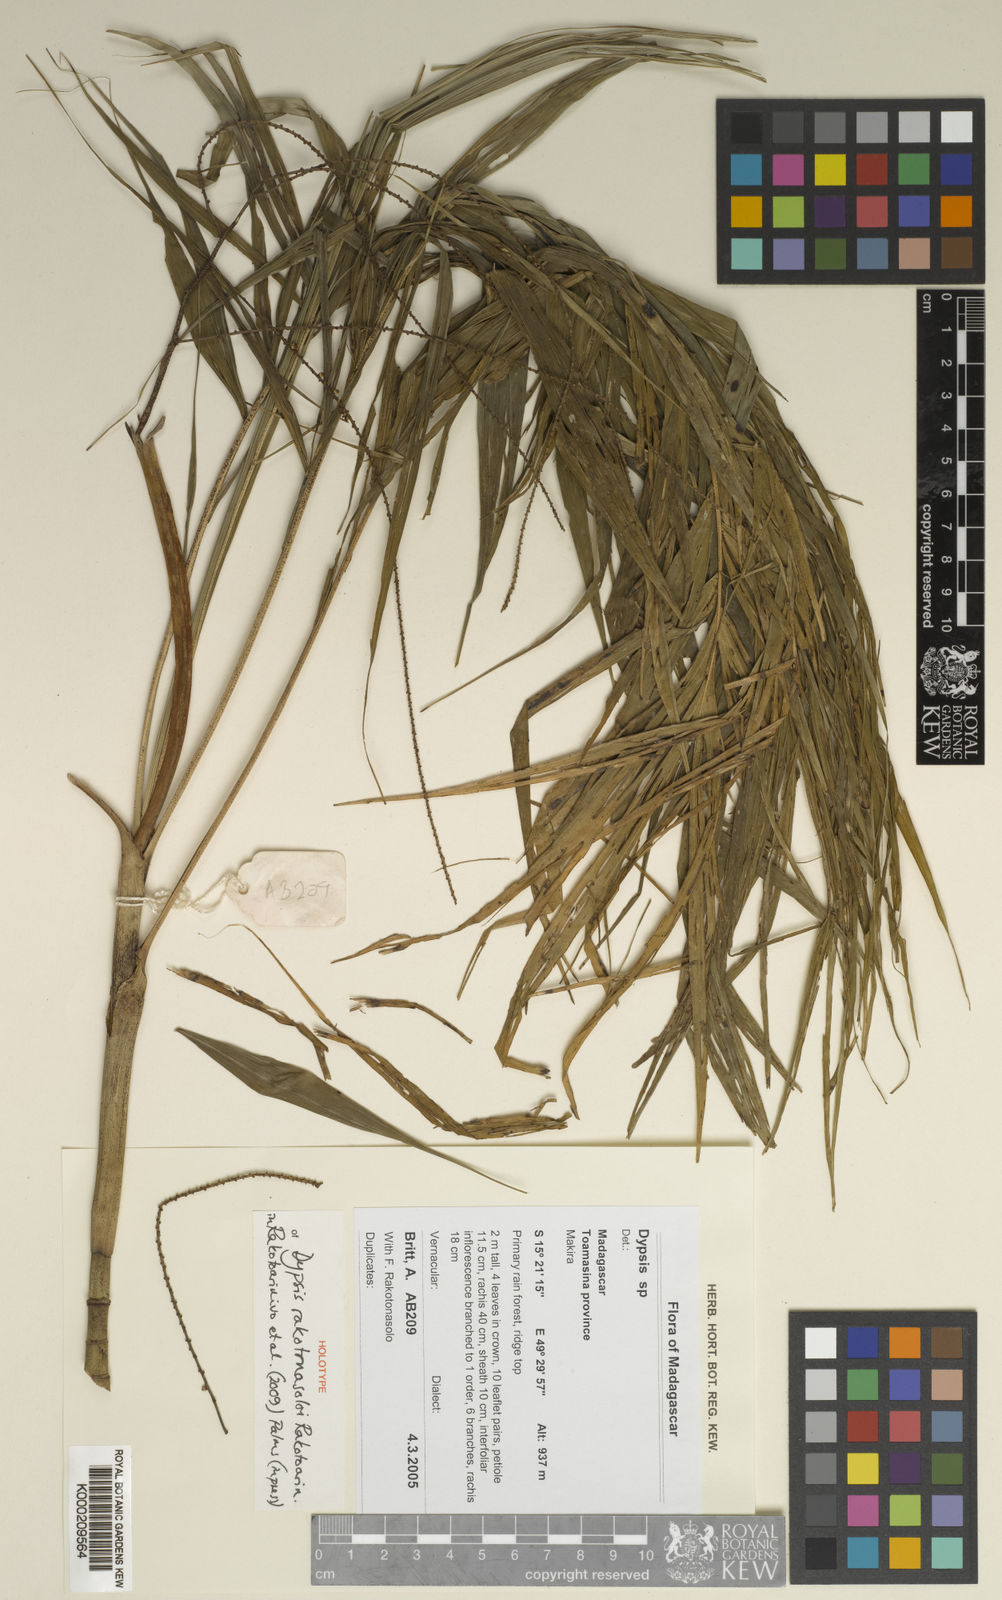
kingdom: Plantae
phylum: Tracheophyta
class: Liliopsida
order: Arecales
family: Arecaceae
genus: Dypsis
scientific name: Dypsis rakotonasoloi
